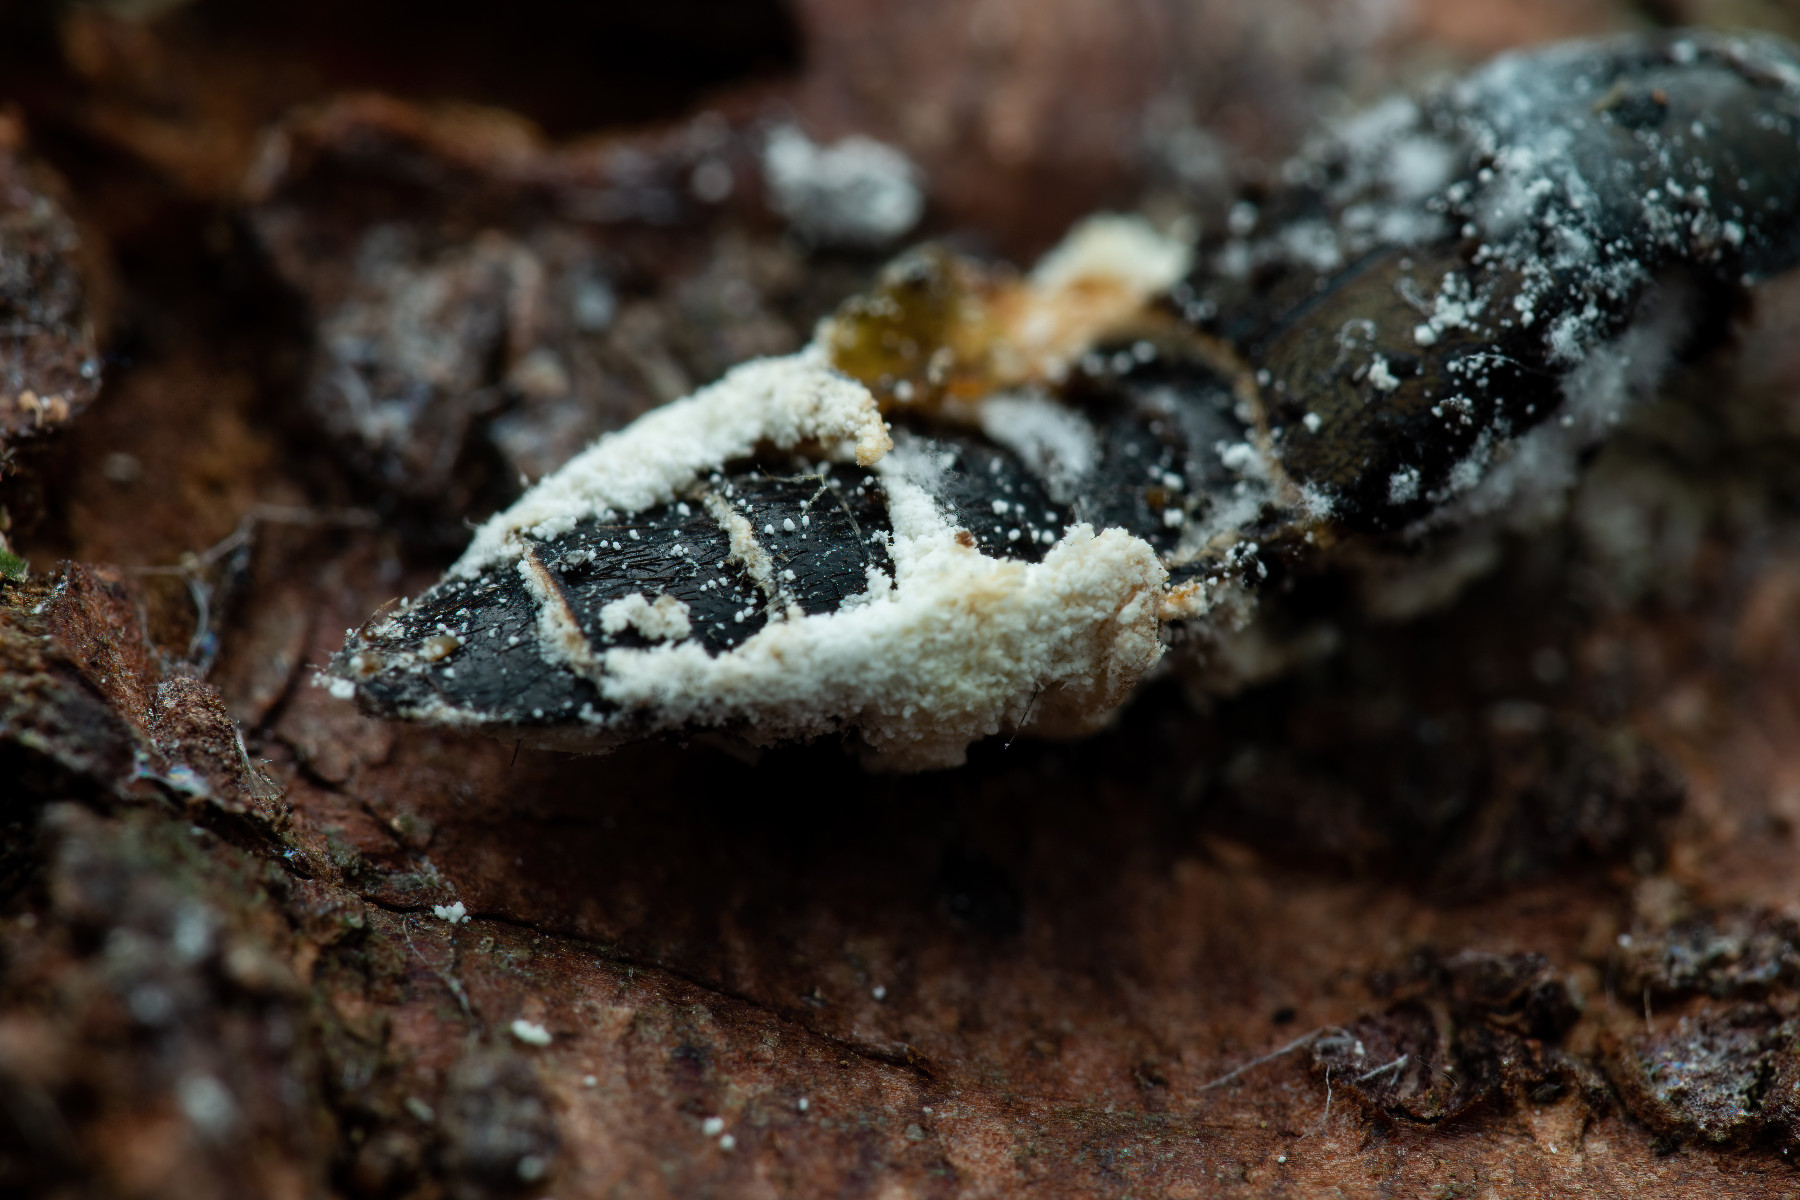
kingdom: Fungi
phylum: Ascomycota
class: Sordariomycetes
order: Hypocreales
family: Cordycipitaceae
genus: Beauveria
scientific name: Beauveria bassiana
